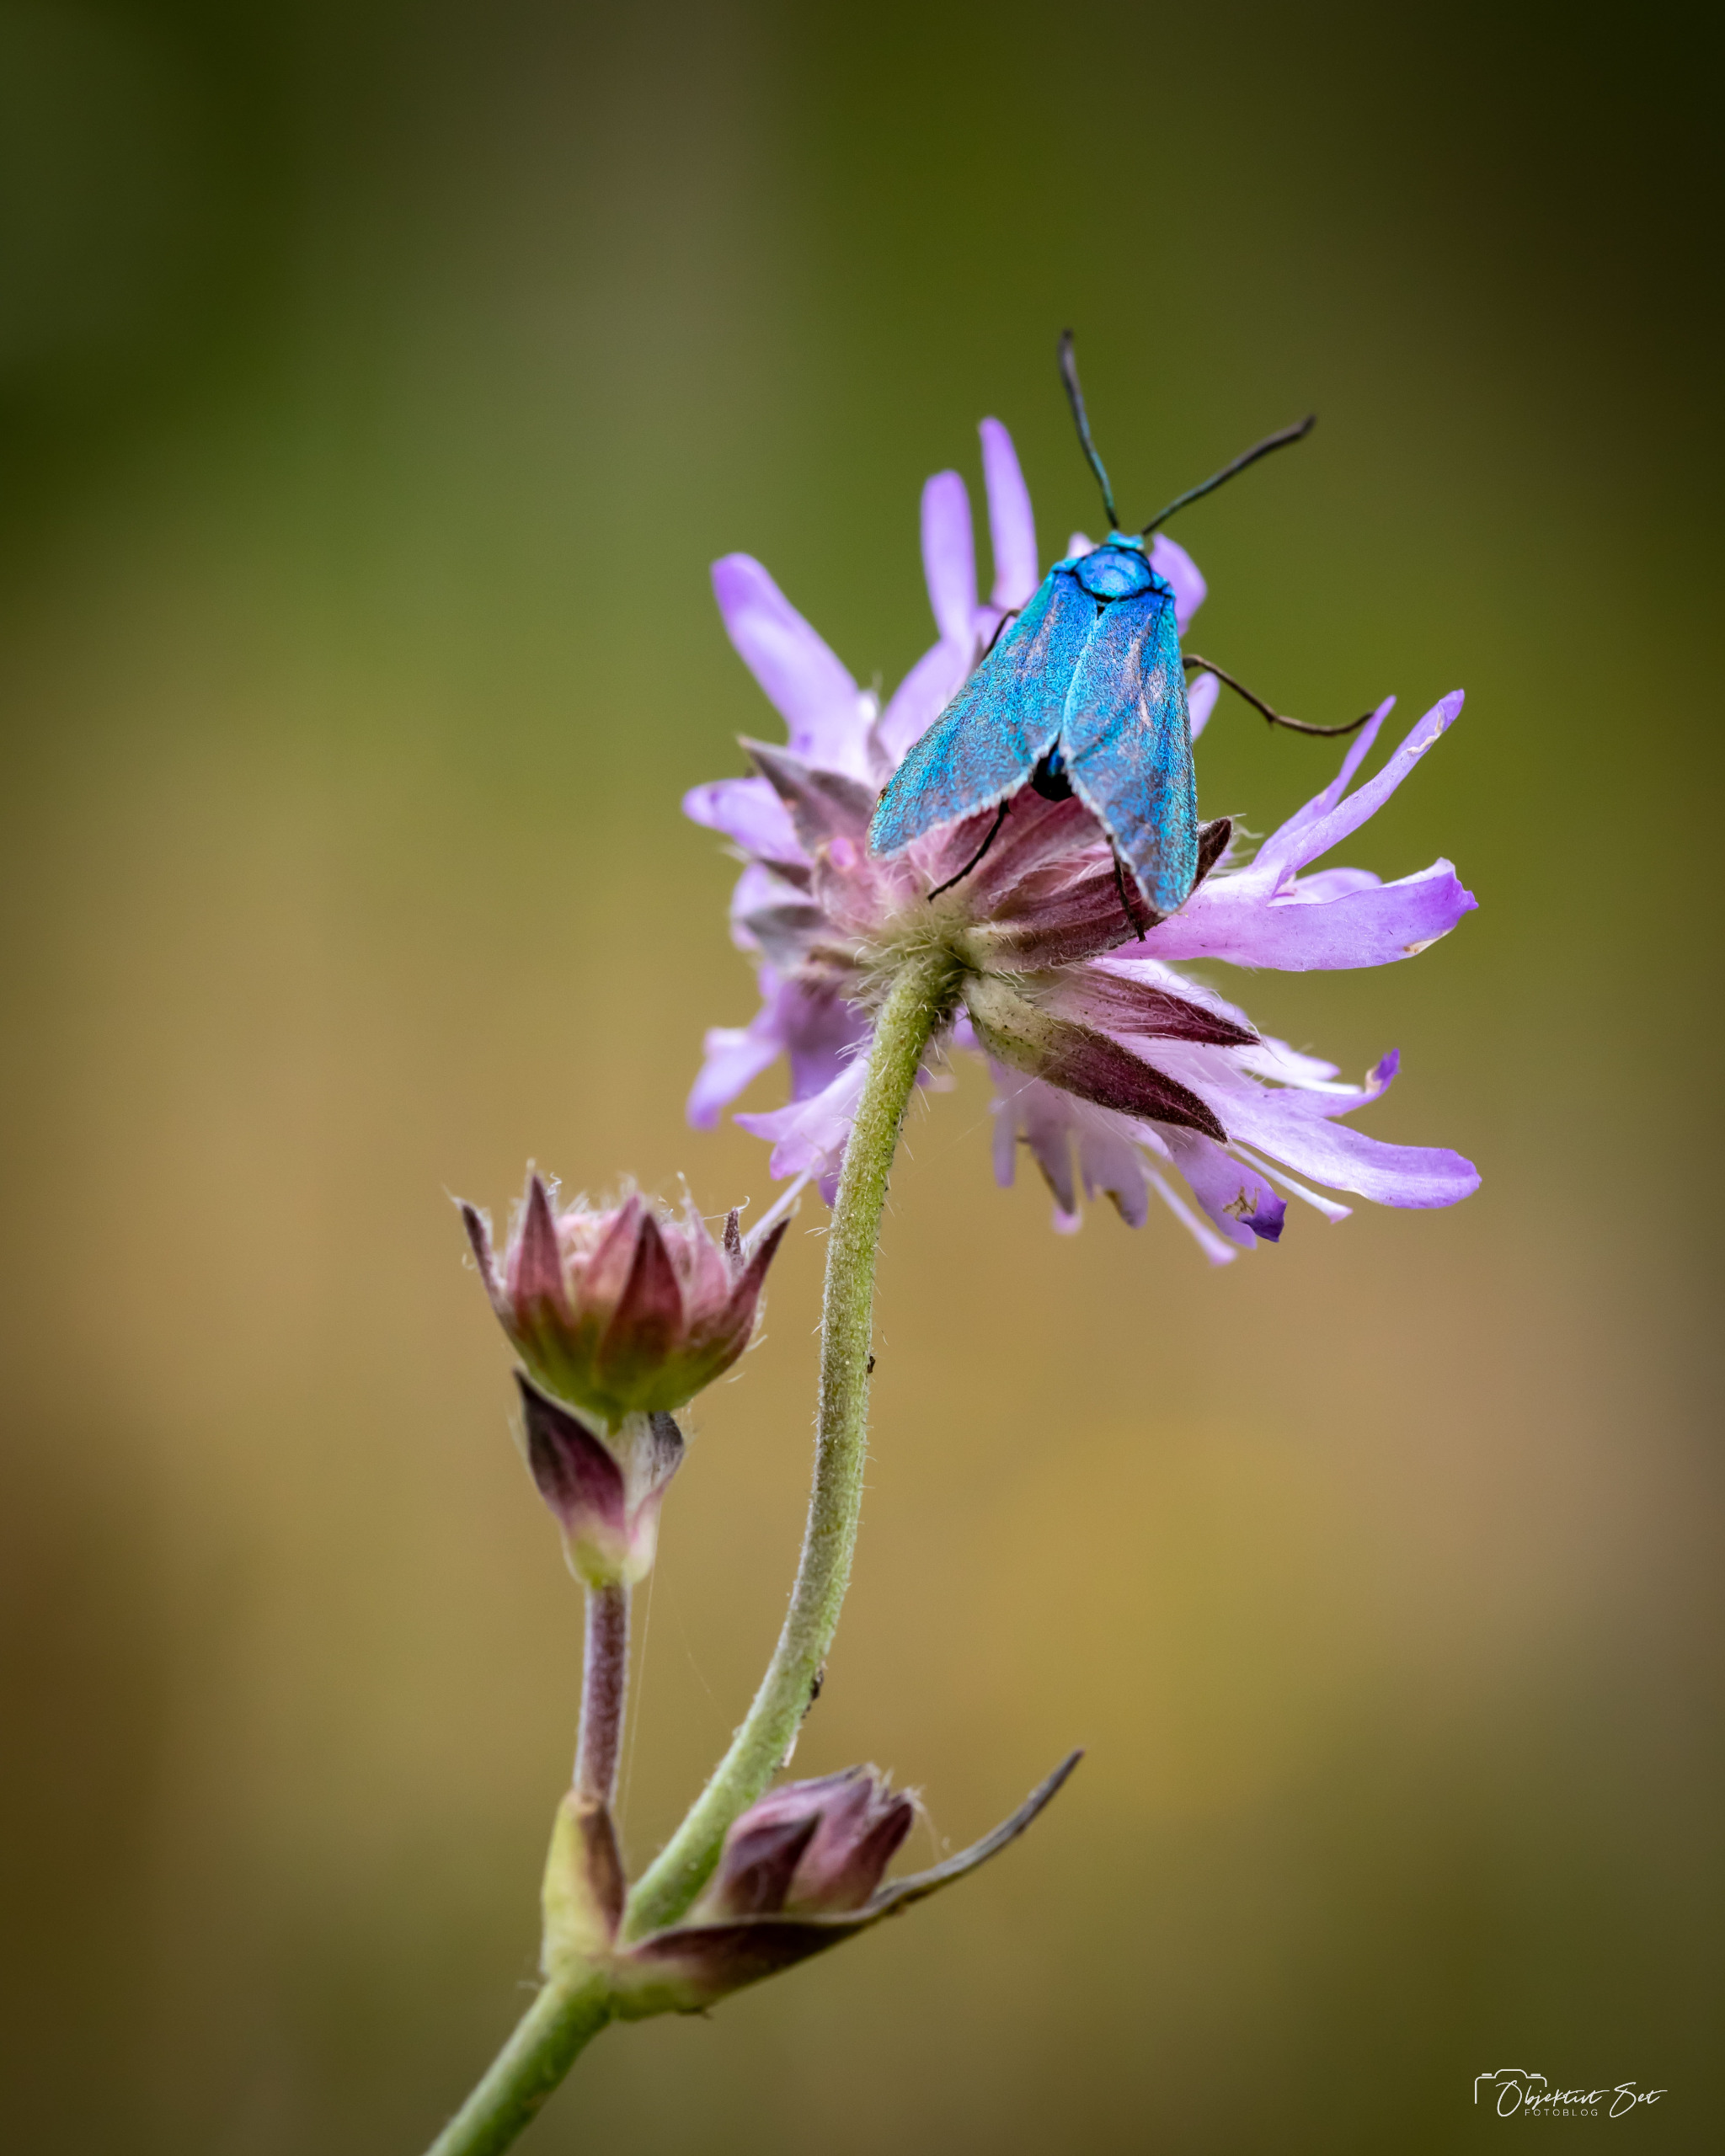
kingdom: Animalia
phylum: Arthropoda
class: Insecta
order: Lepidoptera
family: Zygaenidae
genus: Adscita
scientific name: Adscita statices
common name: Metalvinge
